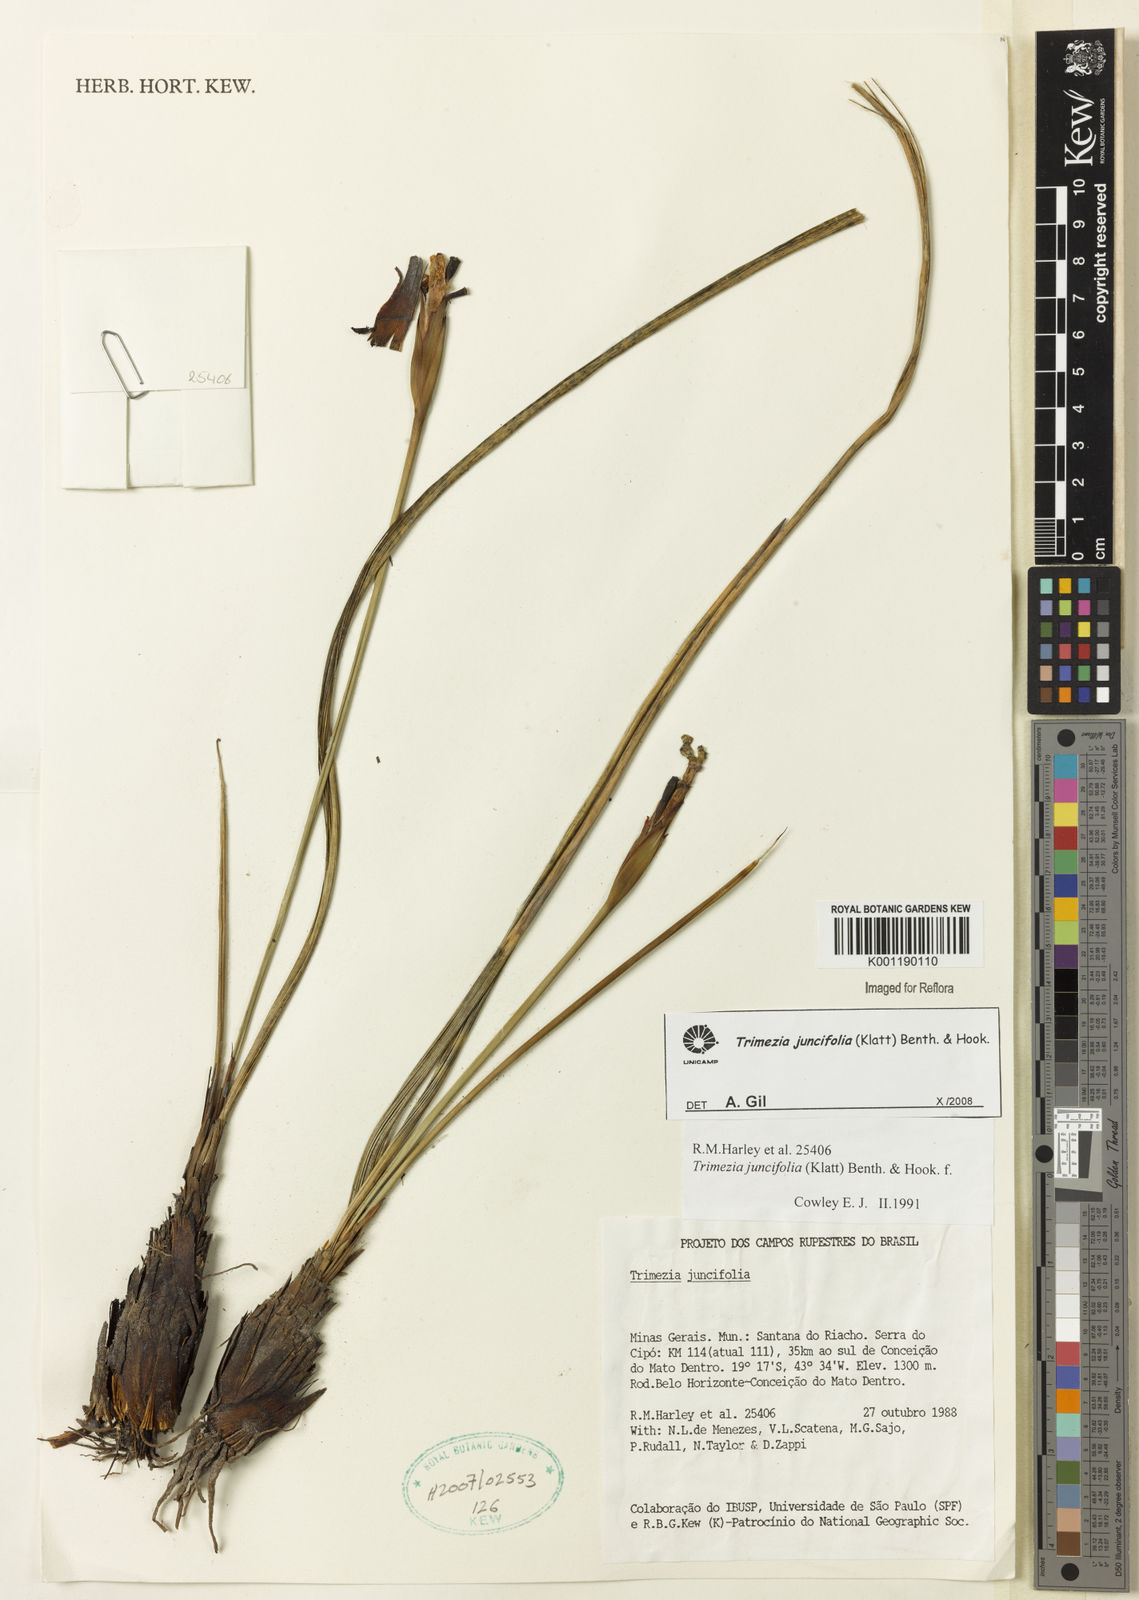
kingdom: Plantae
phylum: Tracheophyta
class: Liliopsida
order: Asparagales
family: Iridaceae
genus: Trimezia
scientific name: Trimezia juncifolia
